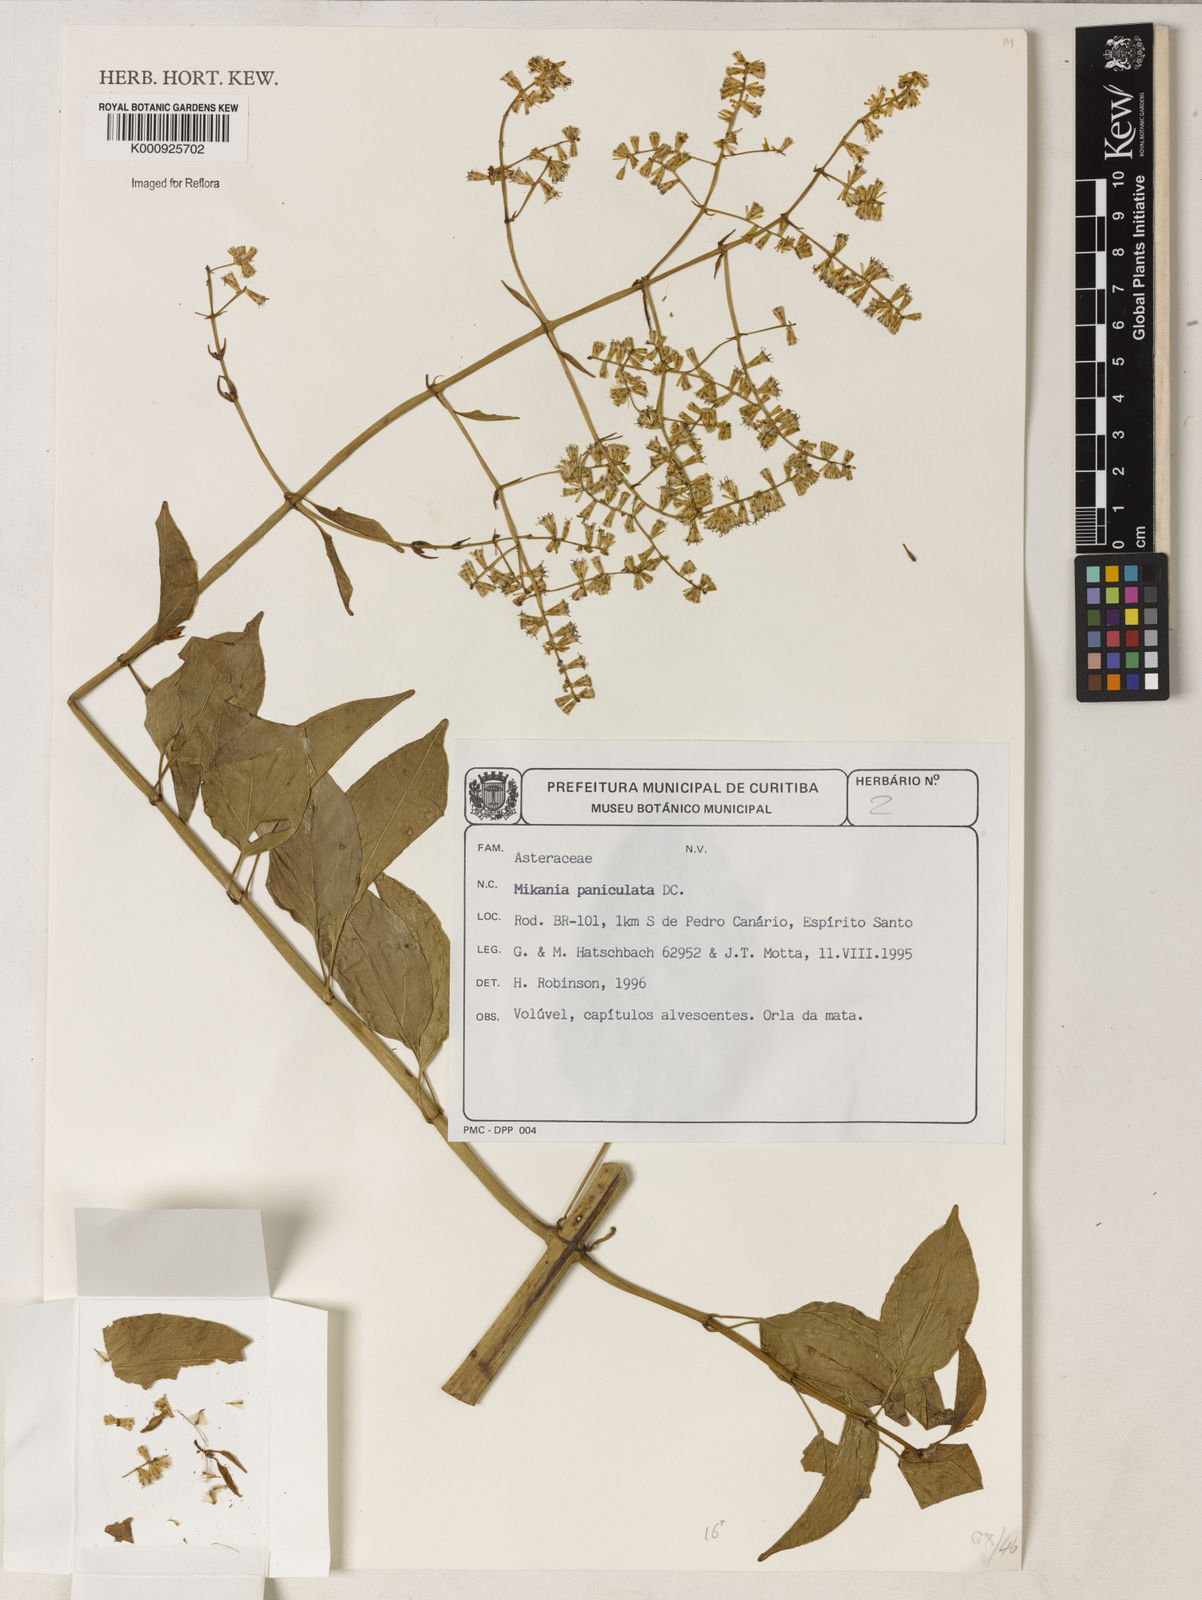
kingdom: Plantae
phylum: Tracheophyta
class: Magnoliopsida
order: Asterales
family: Asteraceae
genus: Mikania
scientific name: Mikania paniculata
